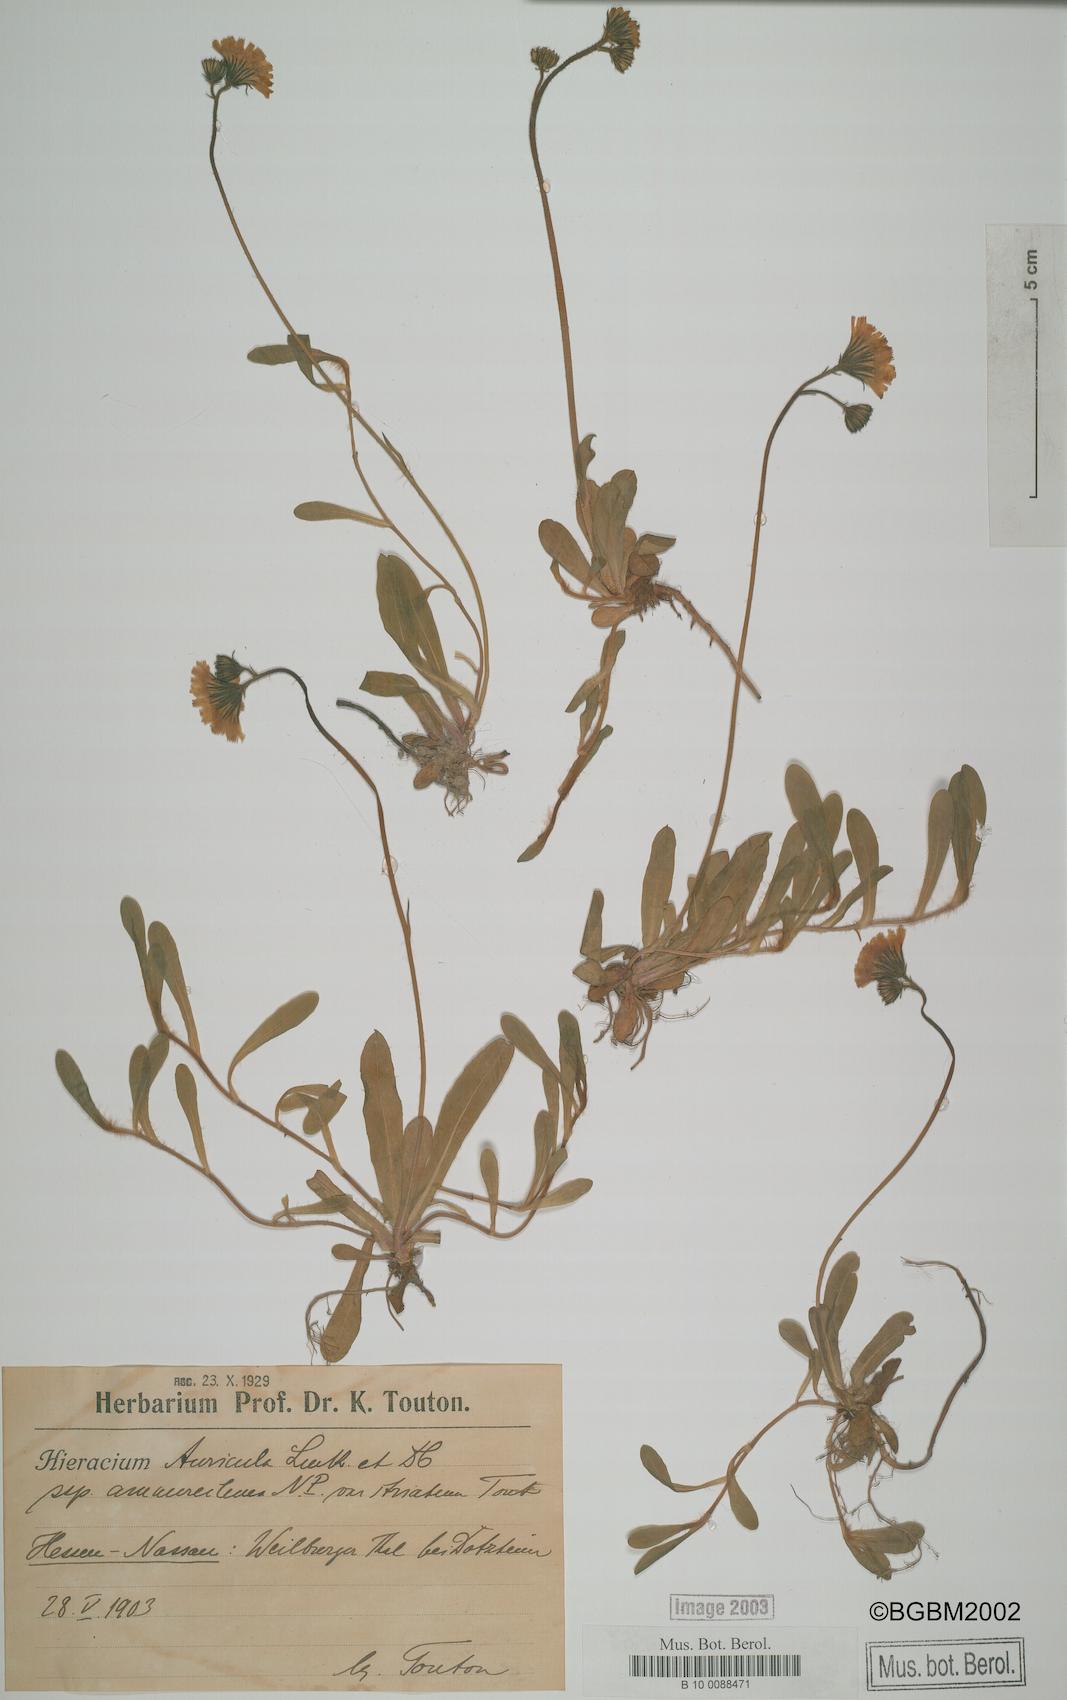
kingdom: Plantae
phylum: Tracheophyta
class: Magnoliopsida
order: Asterales
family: Asteraceae
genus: Hieracium
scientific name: Hieracium auricula
